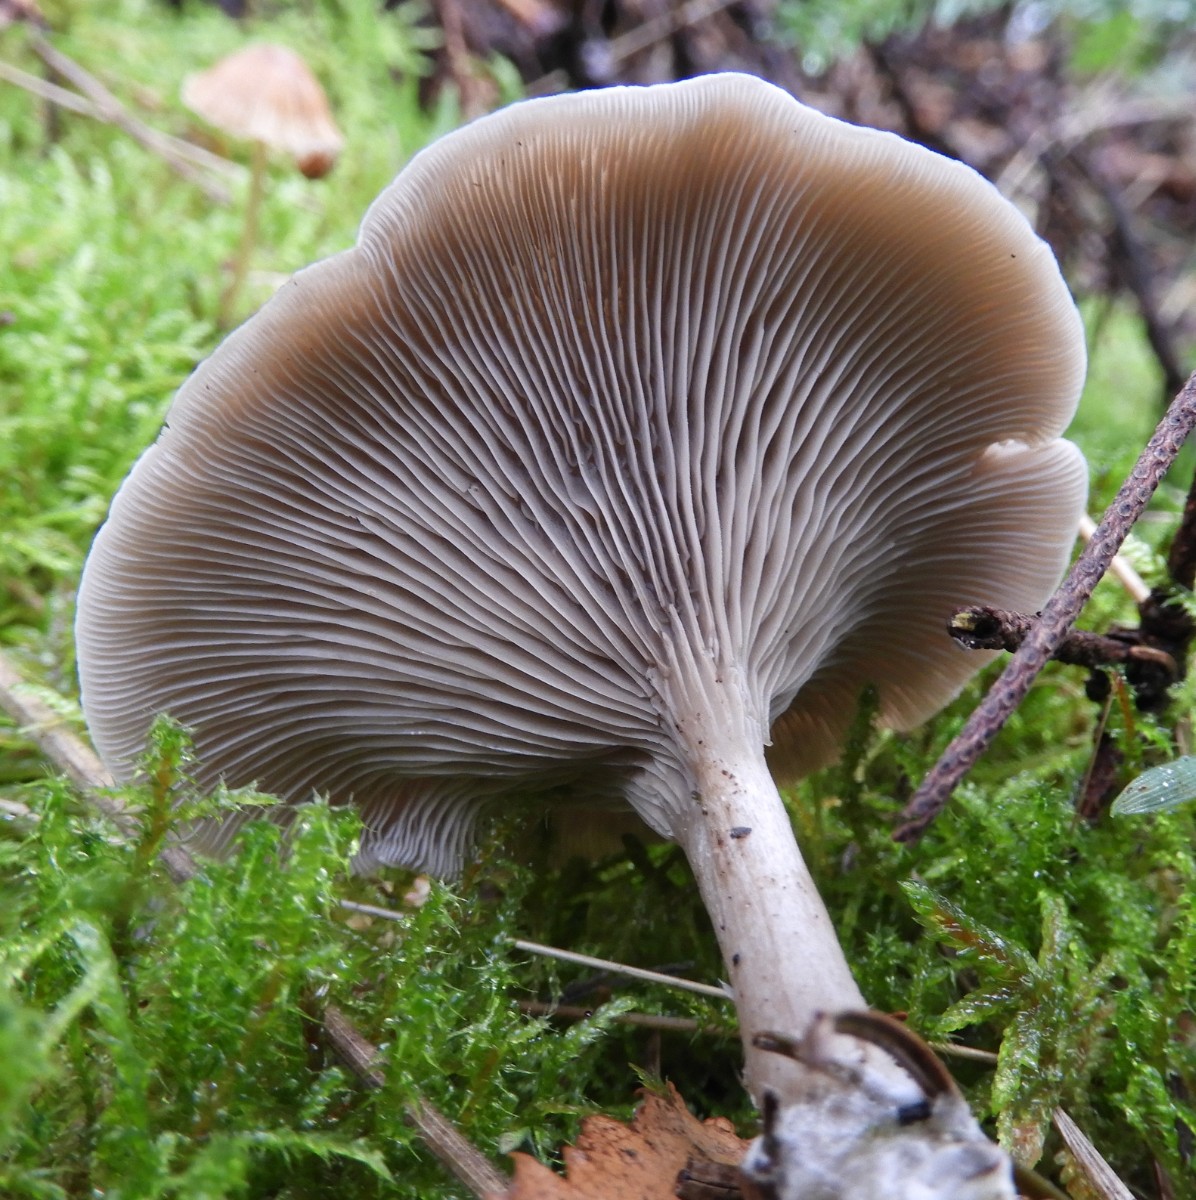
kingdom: Fungi
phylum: Basidiomycota
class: Agaricomycetes
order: Agaricales
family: Tricholomataceae
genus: Clitocybe
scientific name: Clitocybe
